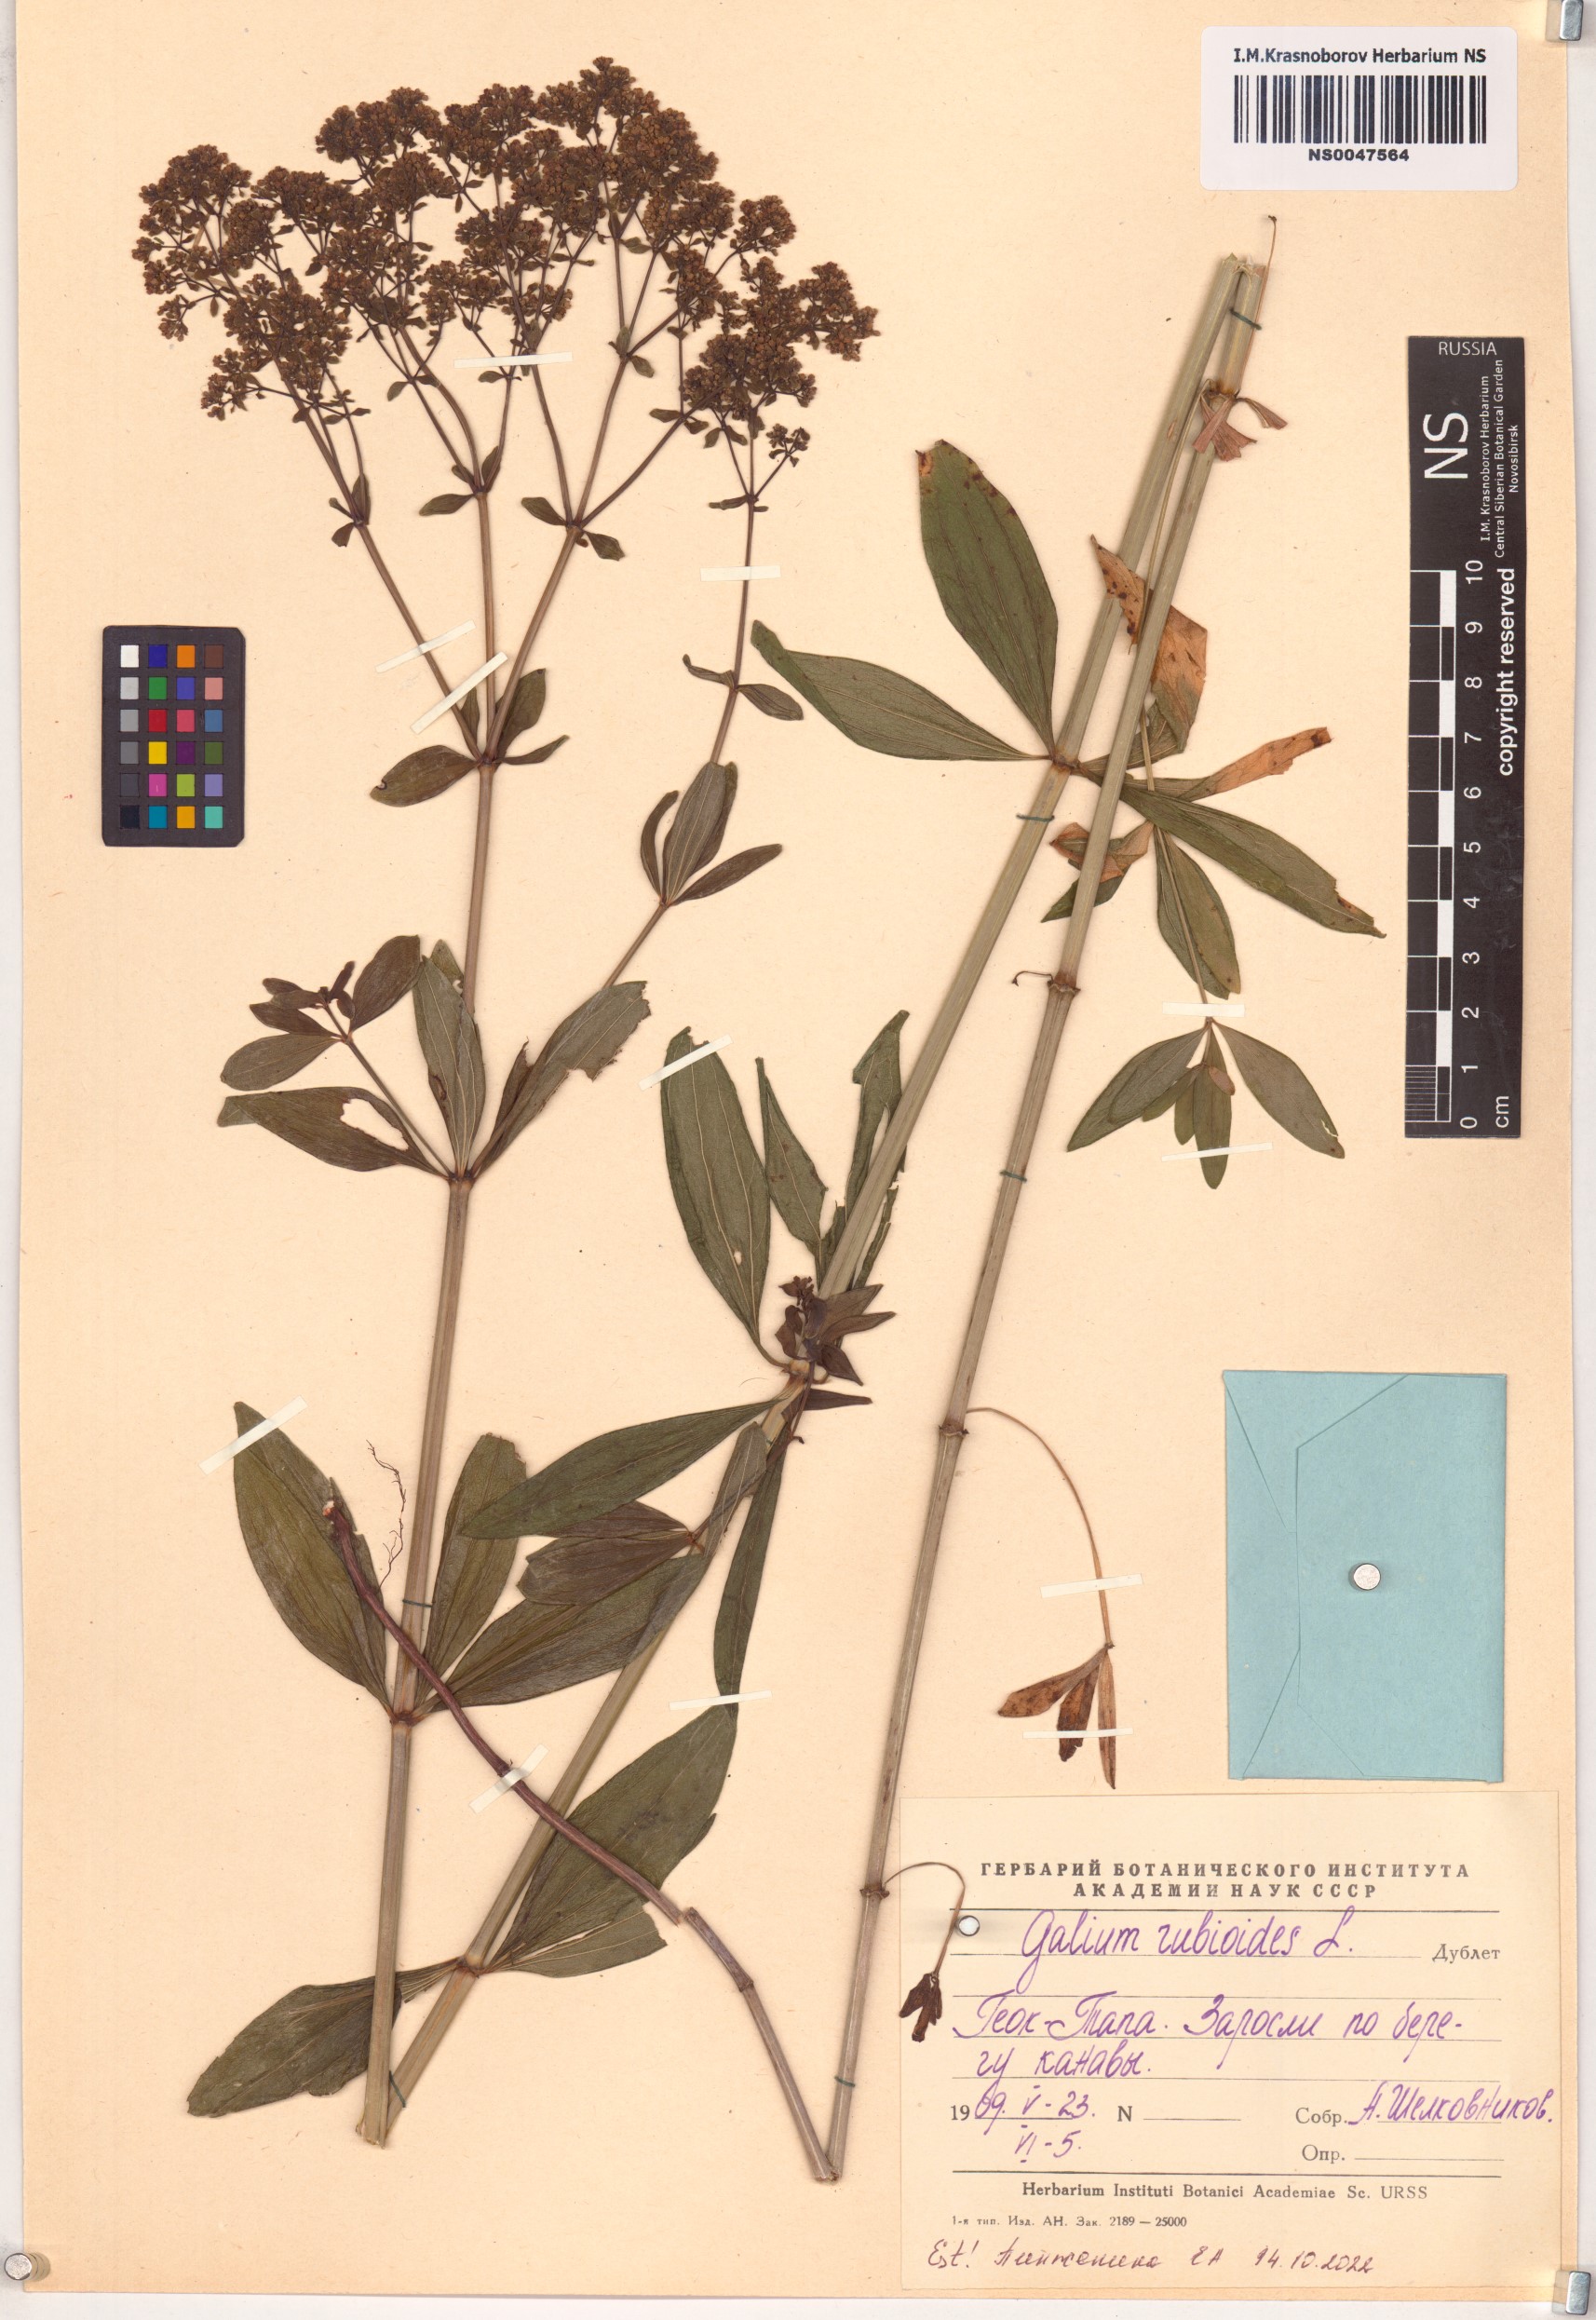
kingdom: Plantae
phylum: Tracheophyta
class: Magnoliopsida
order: Gentianales
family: Rubiaceae
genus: Galium
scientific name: Galium rubioides
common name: European bedstraw
